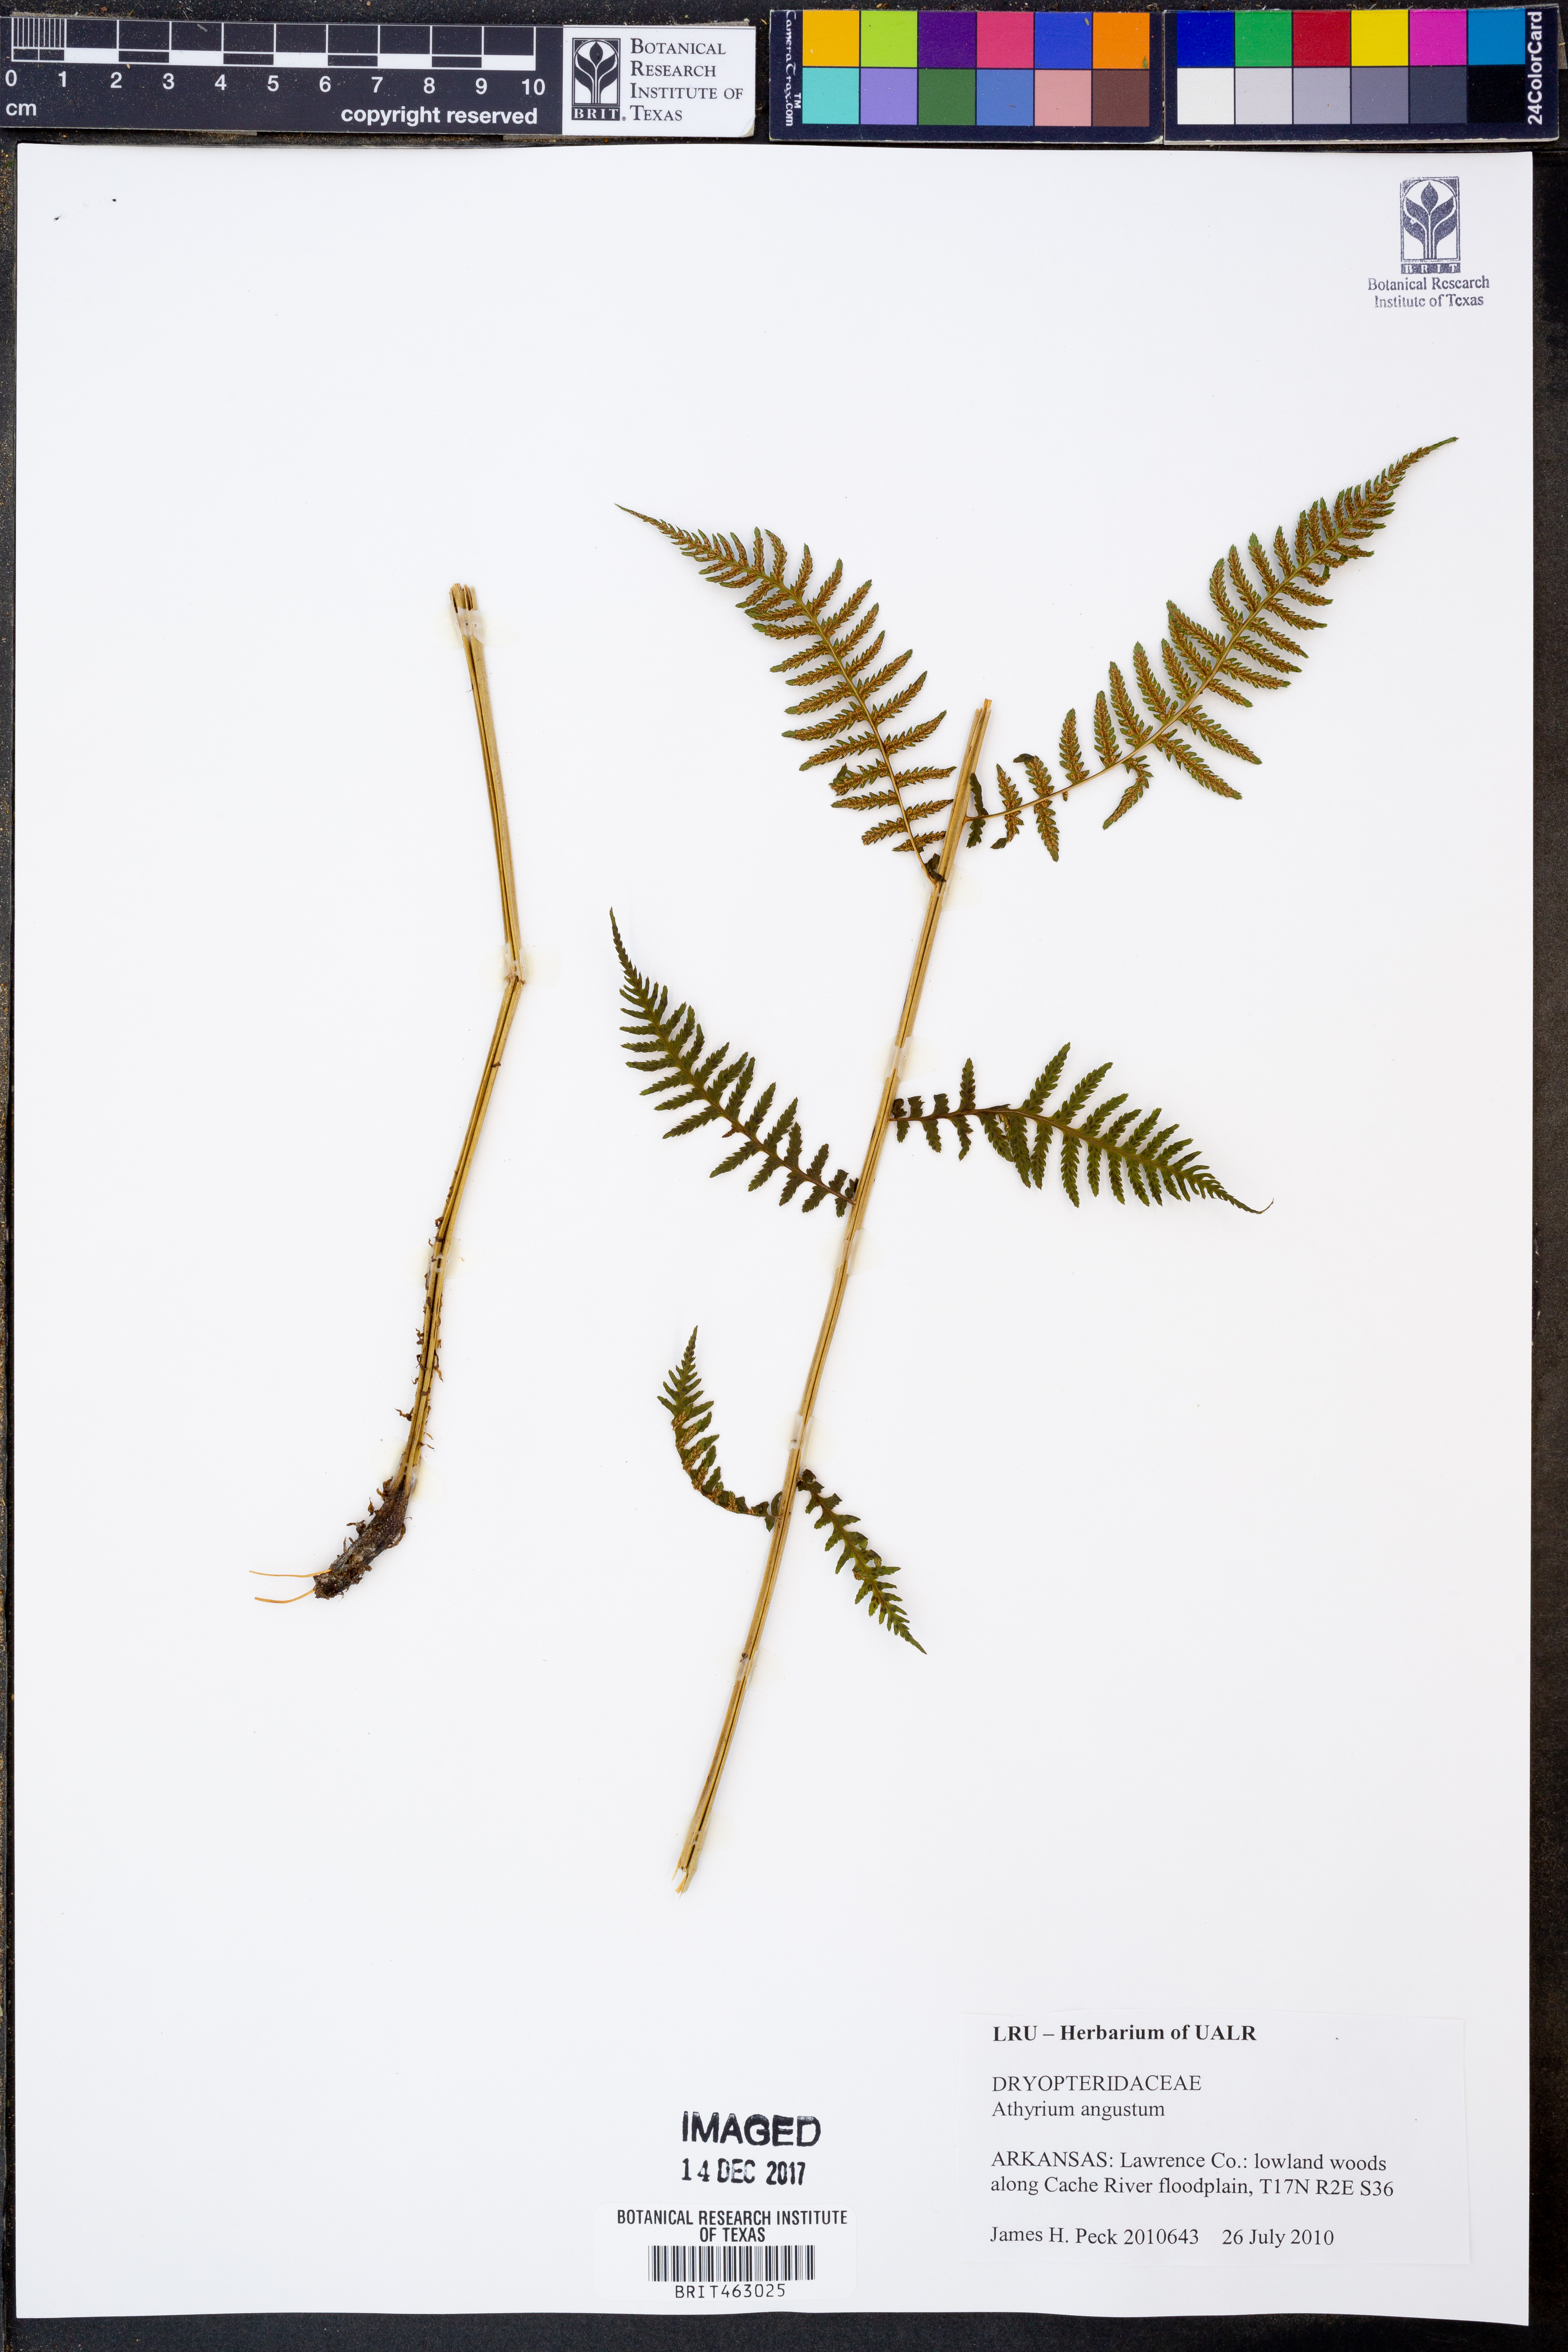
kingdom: Plantae
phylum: Tracheophyta
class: Polypodiopsida
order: Polypodiales
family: Athyriaceae
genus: Athyrium
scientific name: Athyrium angustum
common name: Northern lady fern
